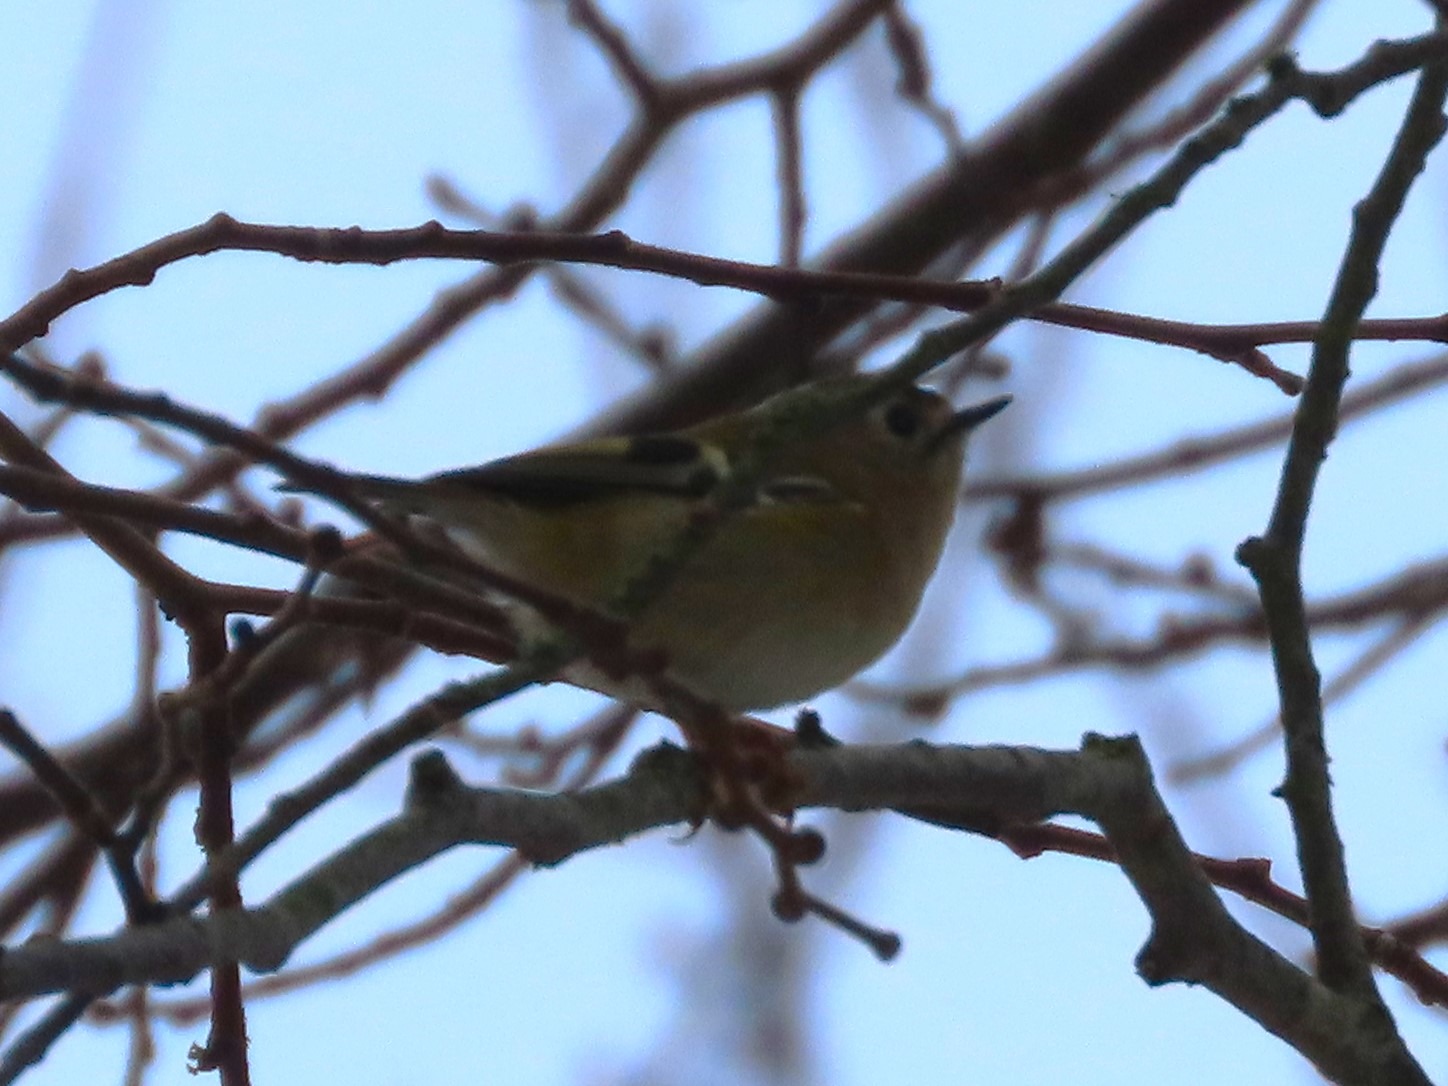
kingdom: Animalia
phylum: Chordata
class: Aves
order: Passeriformes
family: Regulidae
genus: Regulus
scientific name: Regulus regulus
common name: Fuglekonge
